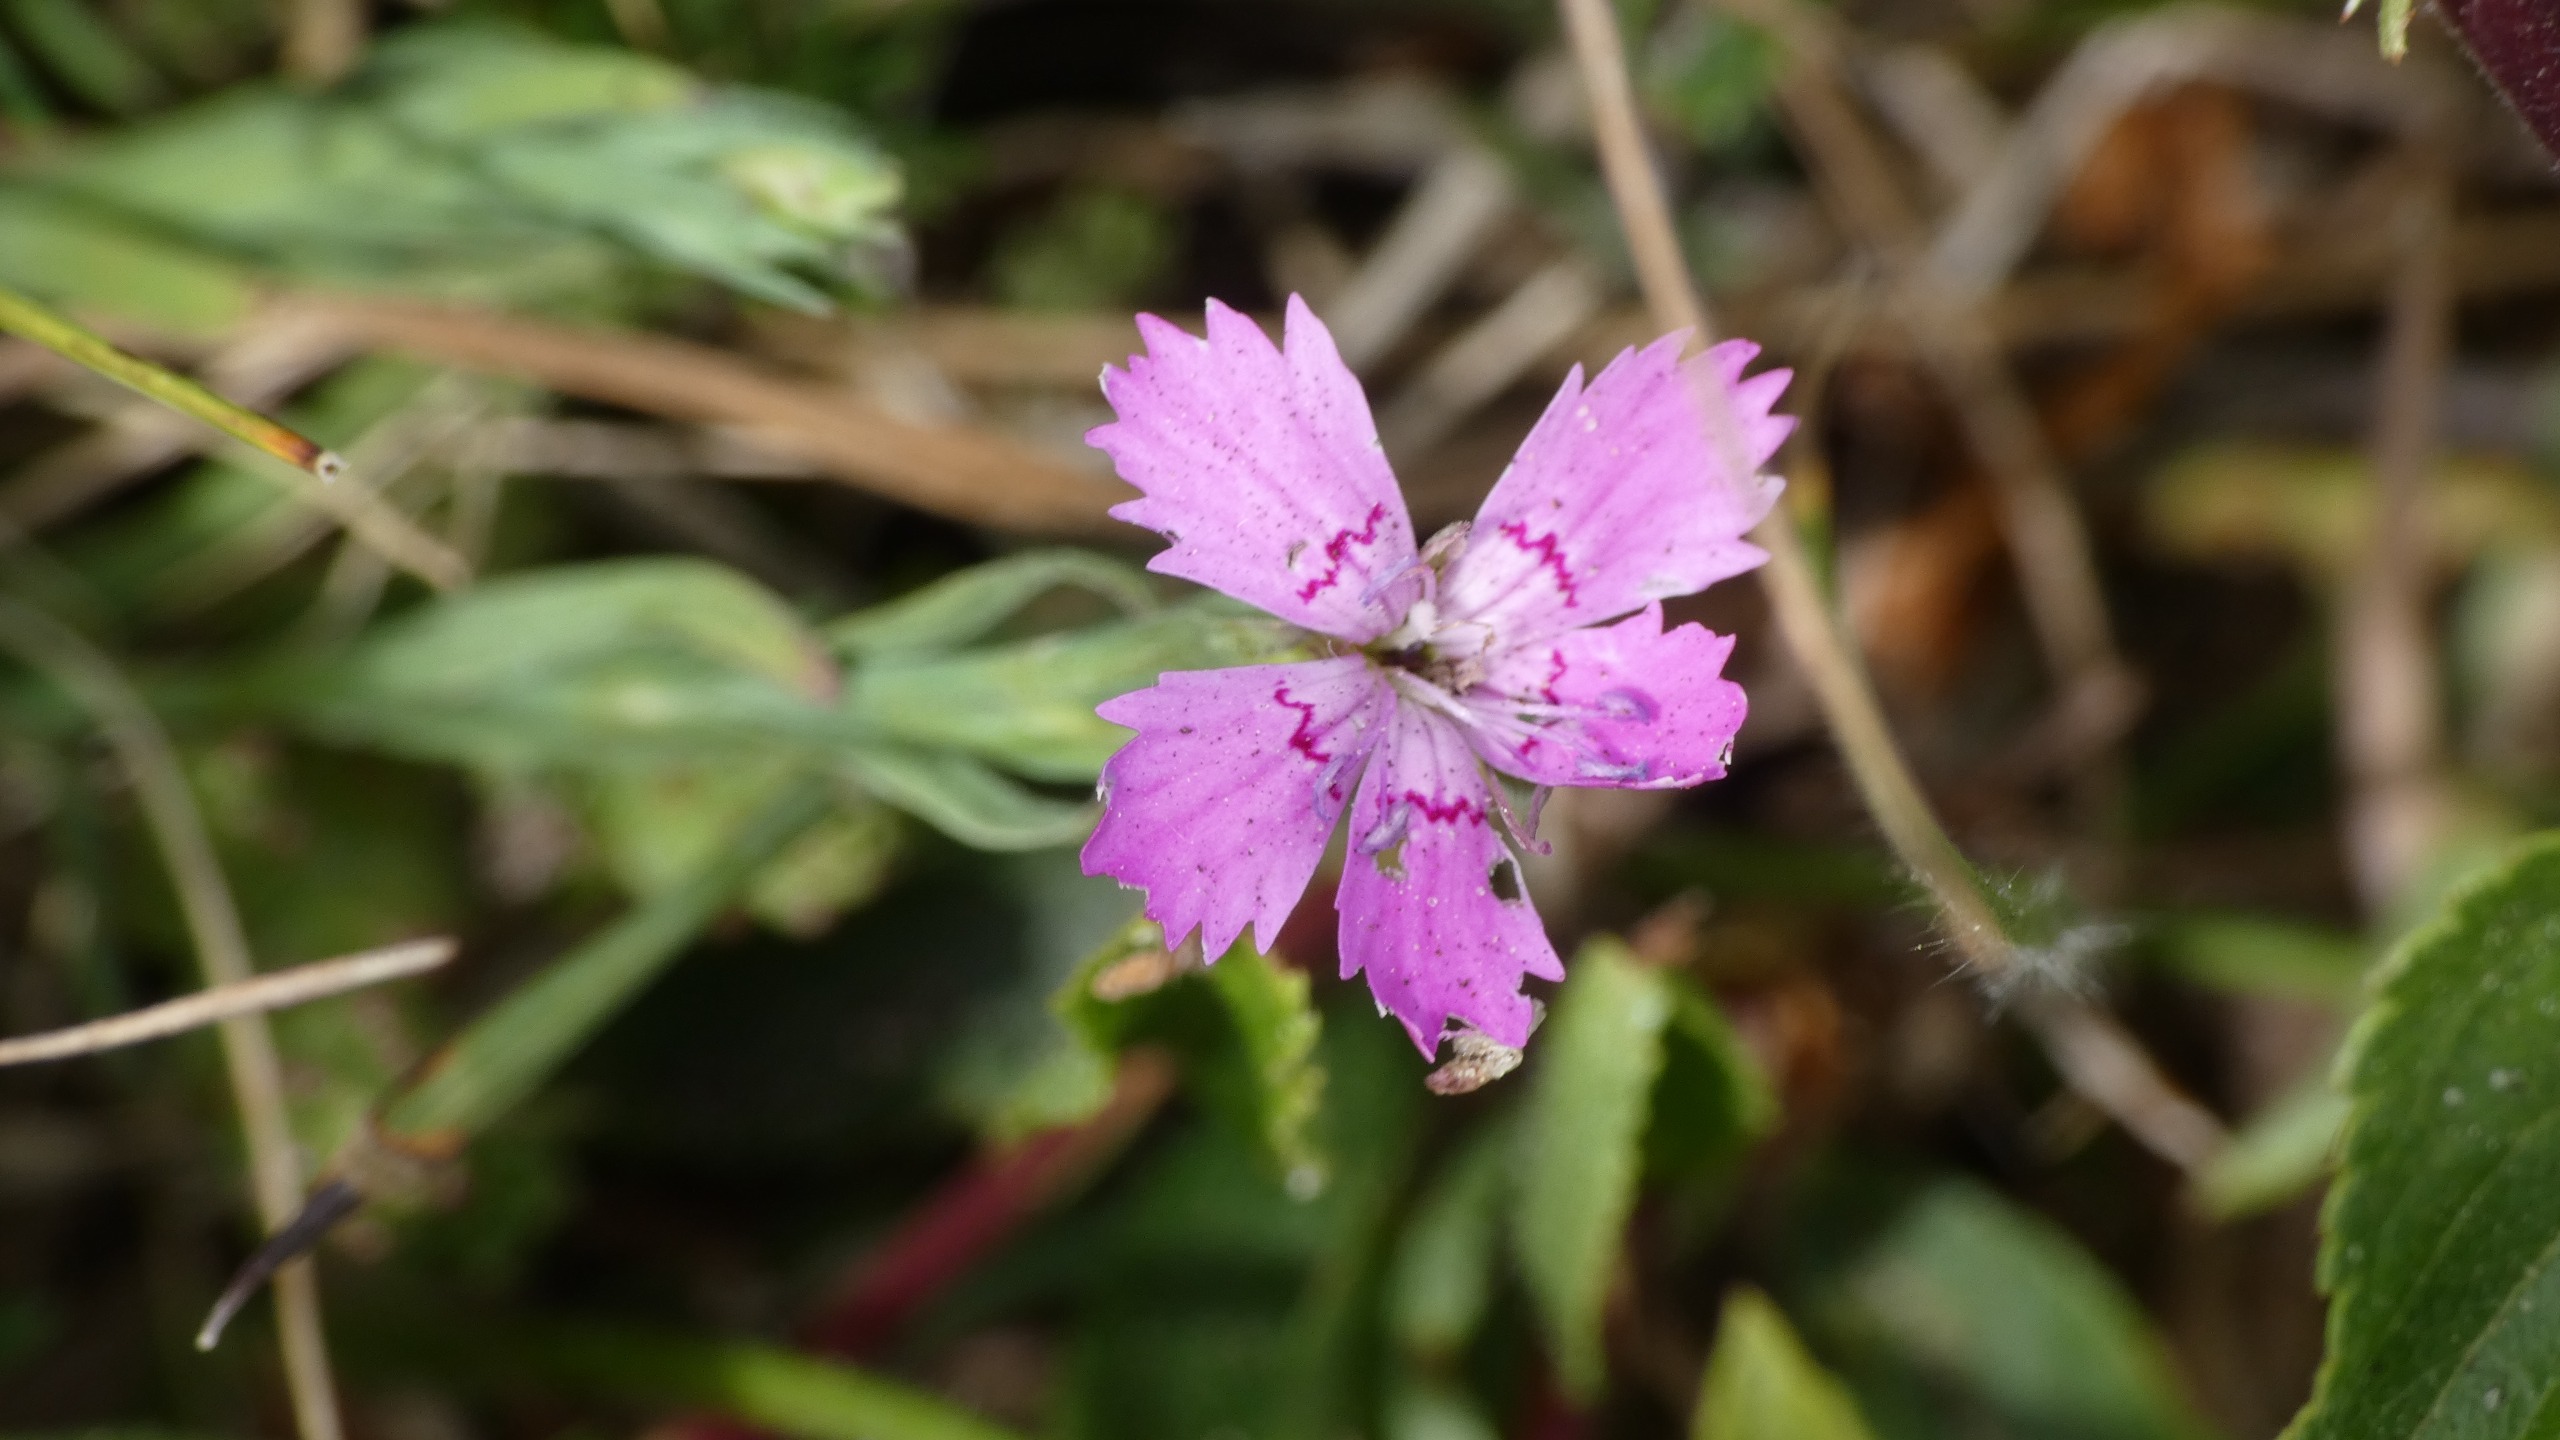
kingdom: Plantae
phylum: Tracheophyta
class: Magnoliopsida
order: Caryophyllales
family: Caryophyllaceae
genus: Dianthus
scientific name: Dianthus deltoides
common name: Bakke-nellike
